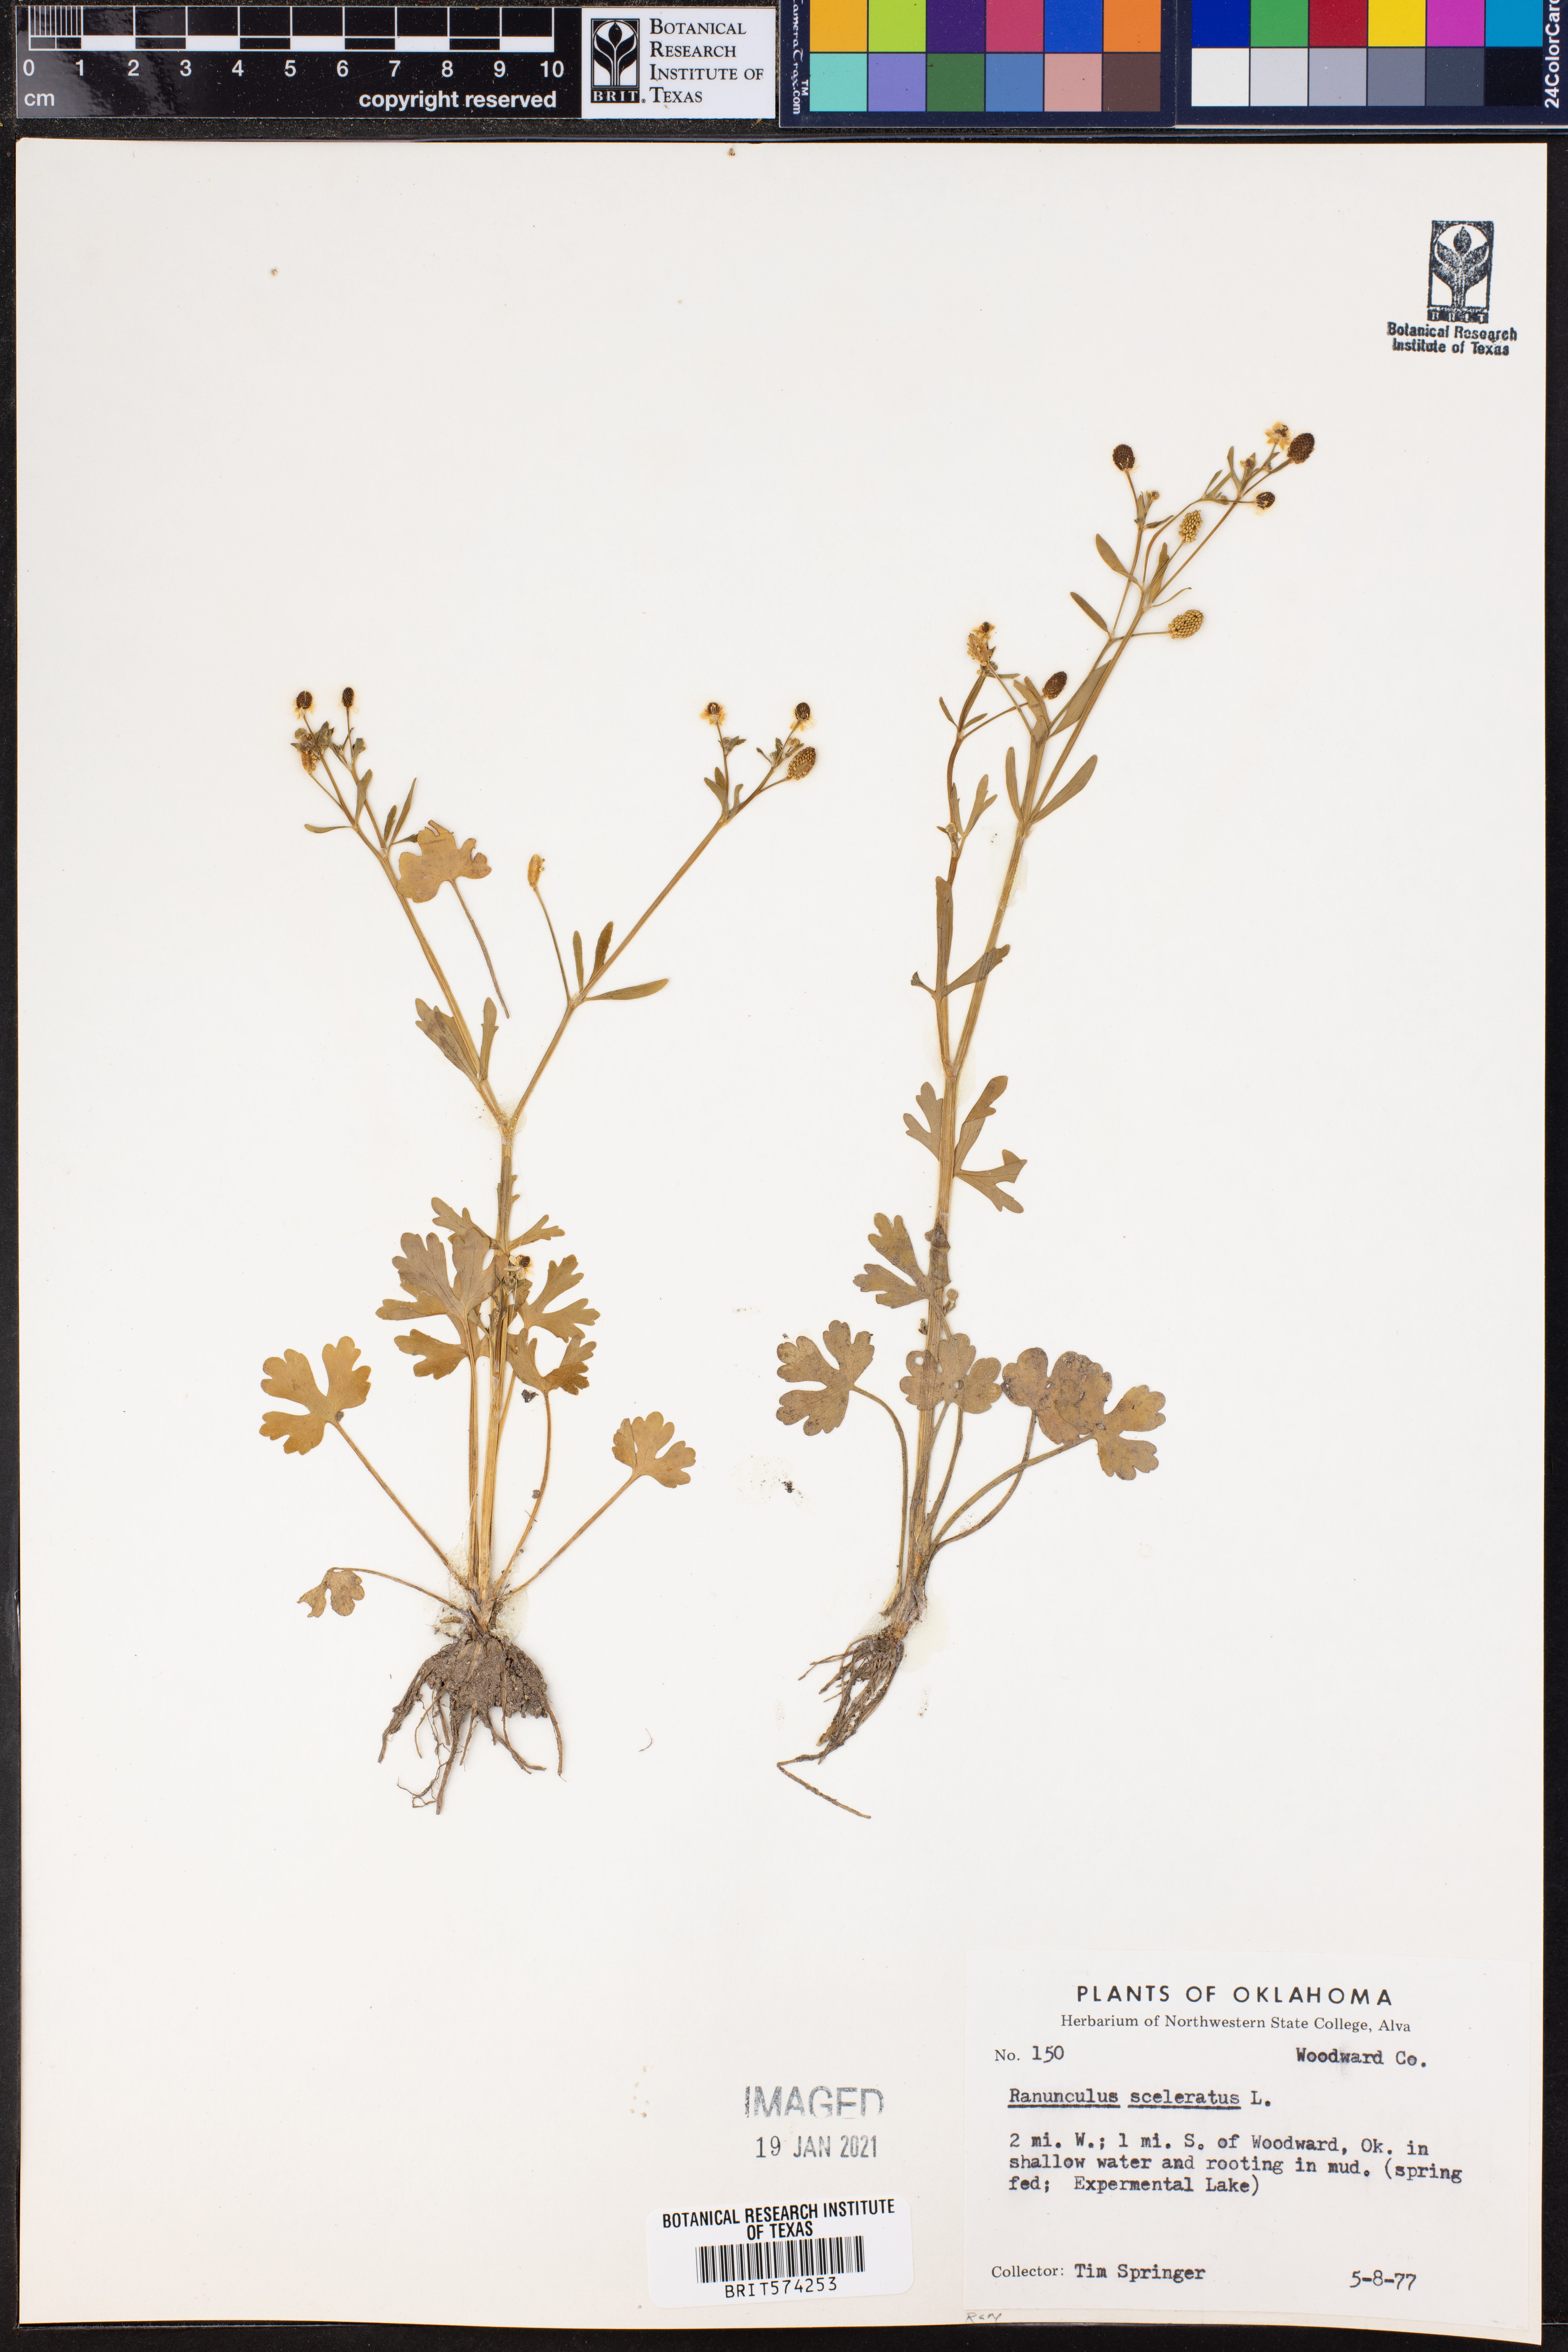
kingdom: Plantae
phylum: Tracheophyta
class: Magnoliopsida
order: Ranunculales
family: Ranunculaceae
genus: Ranunculus
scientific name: Ranunculus sceleratus
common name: Celery-leaved buttercup
